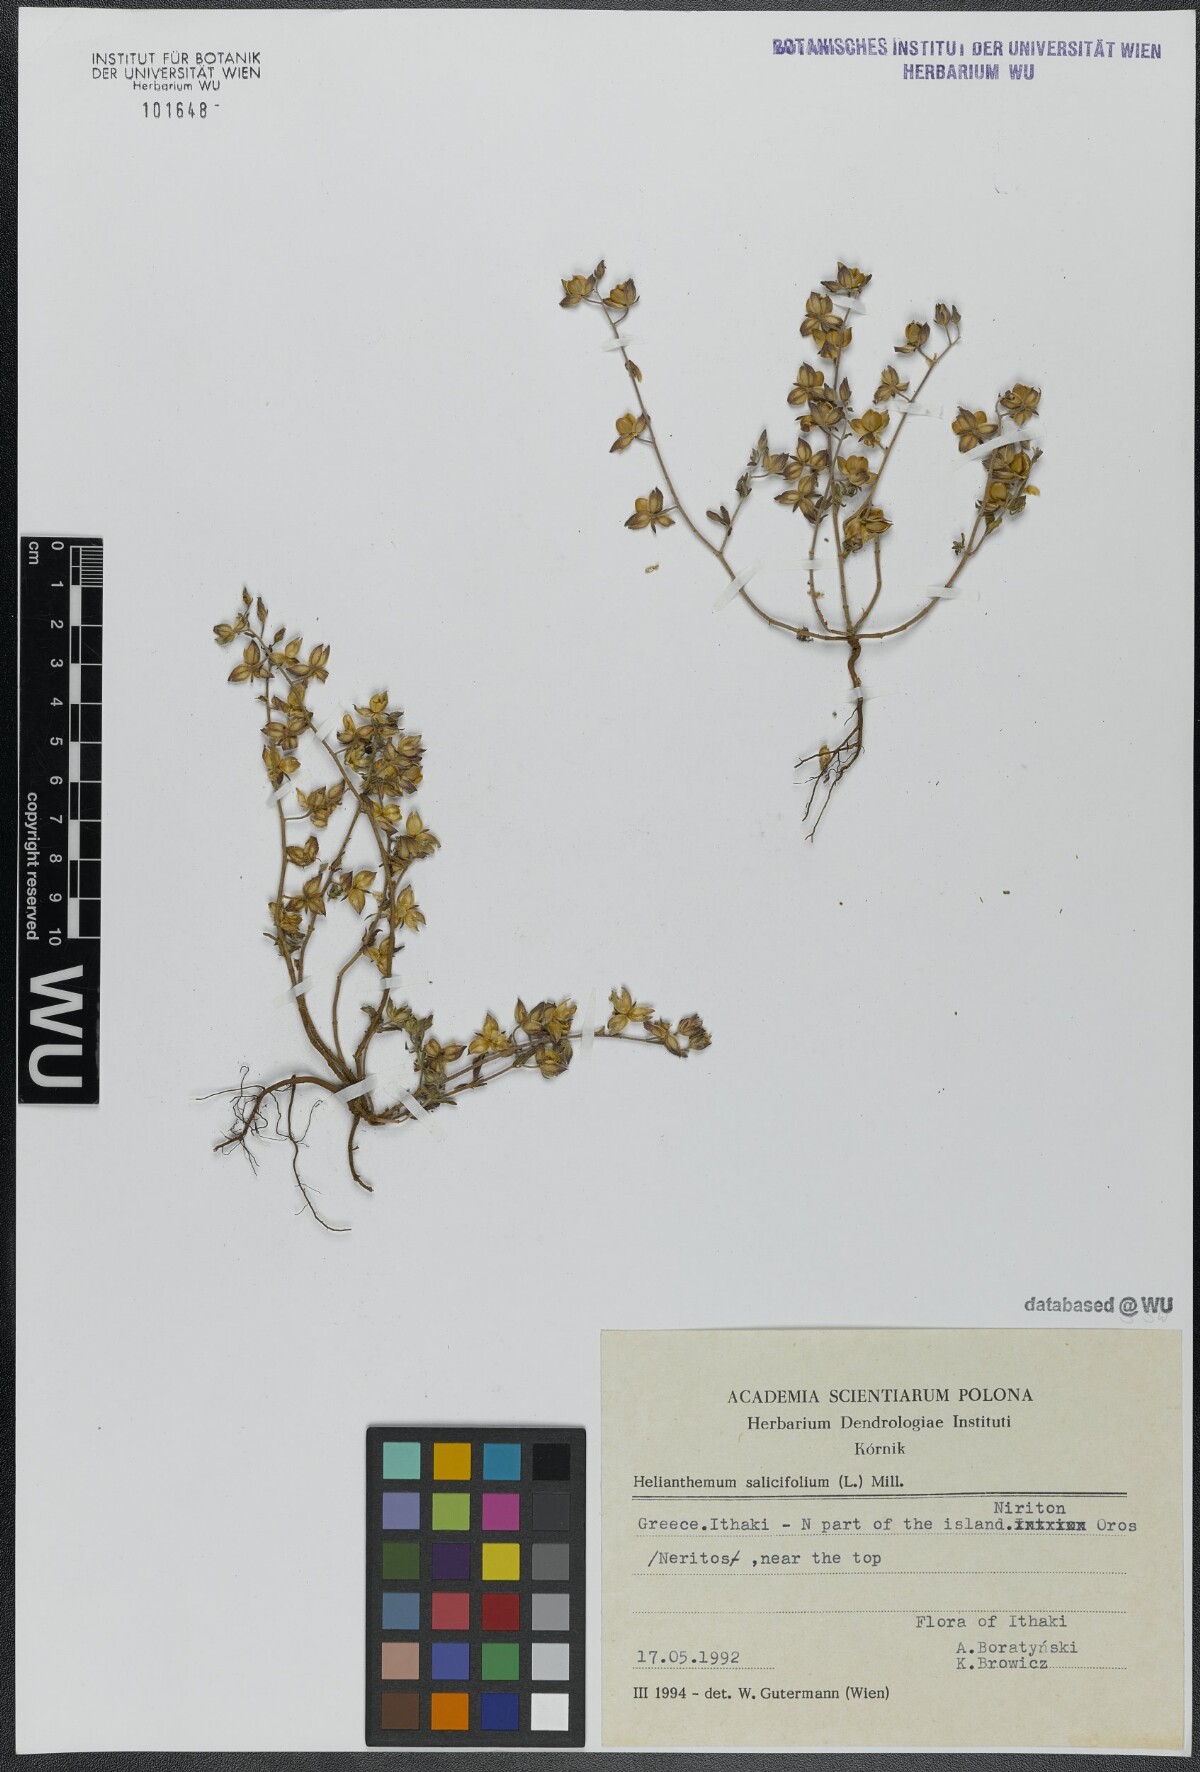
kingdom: Plantae
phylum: Tracheophyta
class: Magnoliopsida
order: Malvales
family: Cistaceae
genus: Helianthemum
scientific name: Helianthemum salicifolium
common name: Willowleaf frostweed
